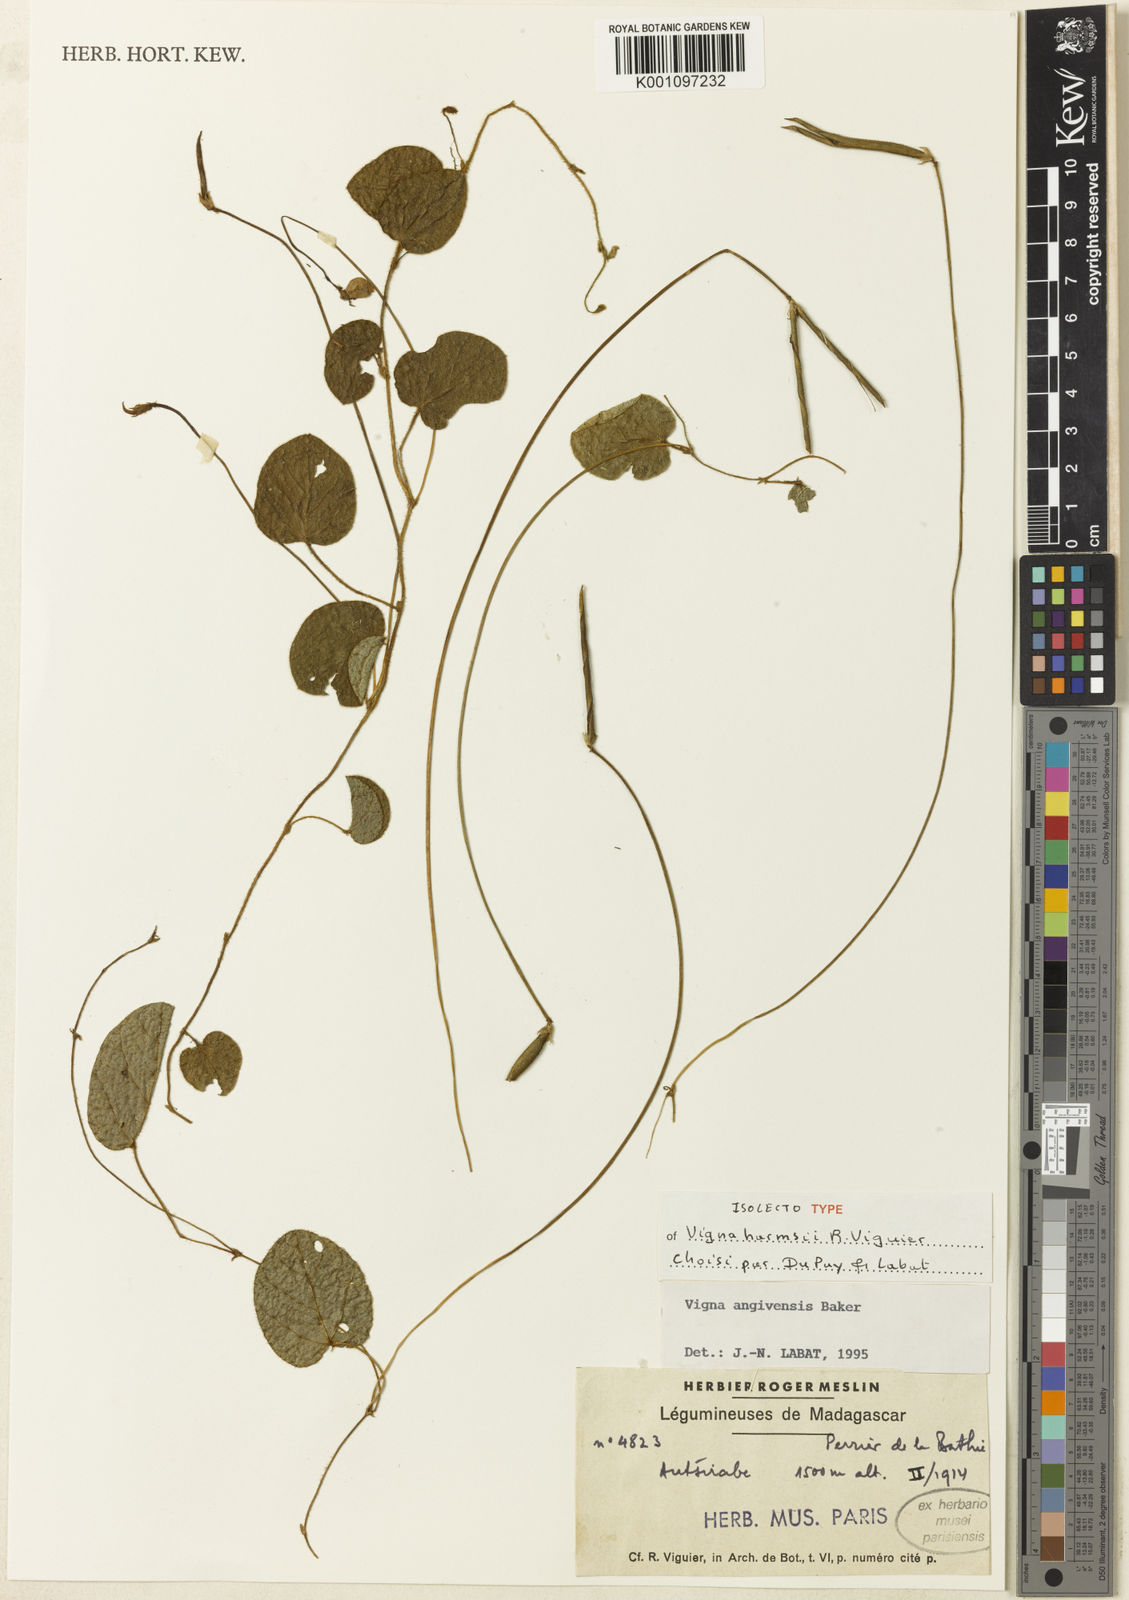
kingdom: Plantae
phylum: Tracheophyta
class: Magnoliopsida
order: Fabales
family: Fabaceae
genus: Vigna
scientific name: Vigna angivensis
